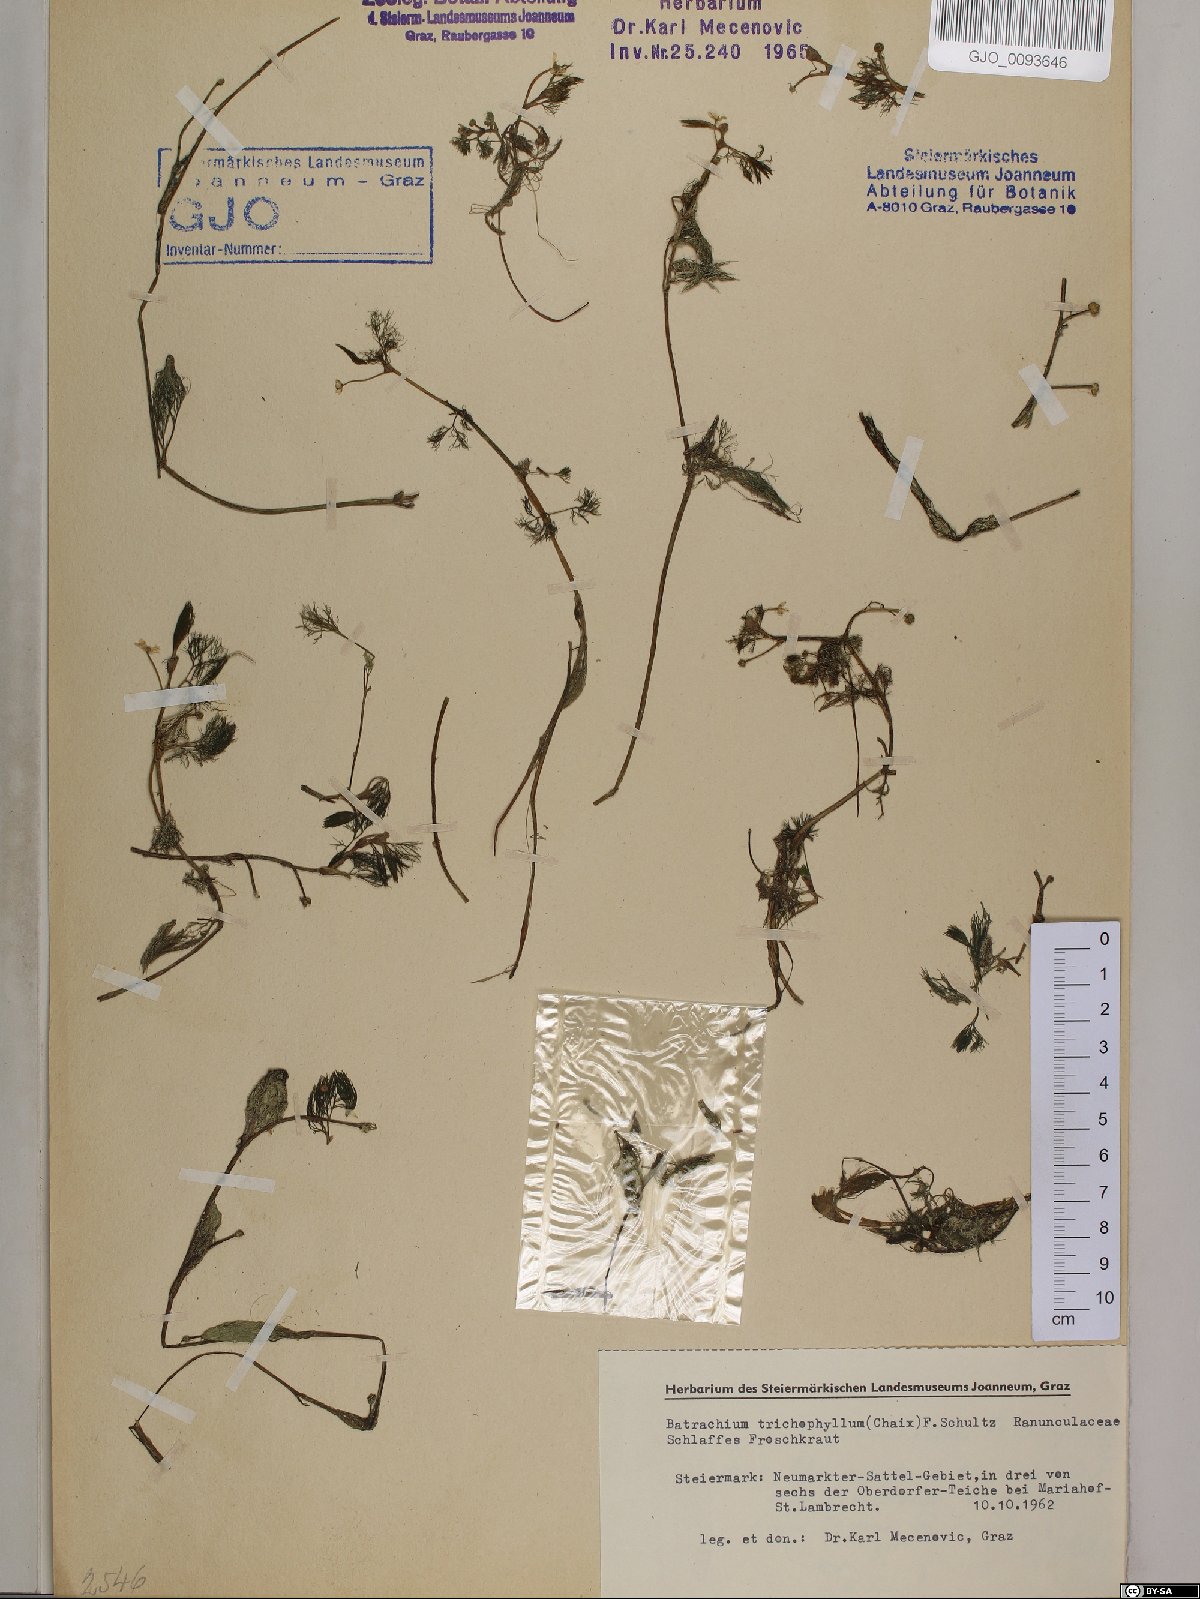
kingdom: Plantae
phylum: Tracheophyta
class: Magnoliopsida
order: Ranunculales
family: Ranunculaceae
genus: Ranunculus
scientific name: Ranunculus trichophyllus
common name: Thread-leaved water-crowfoot
